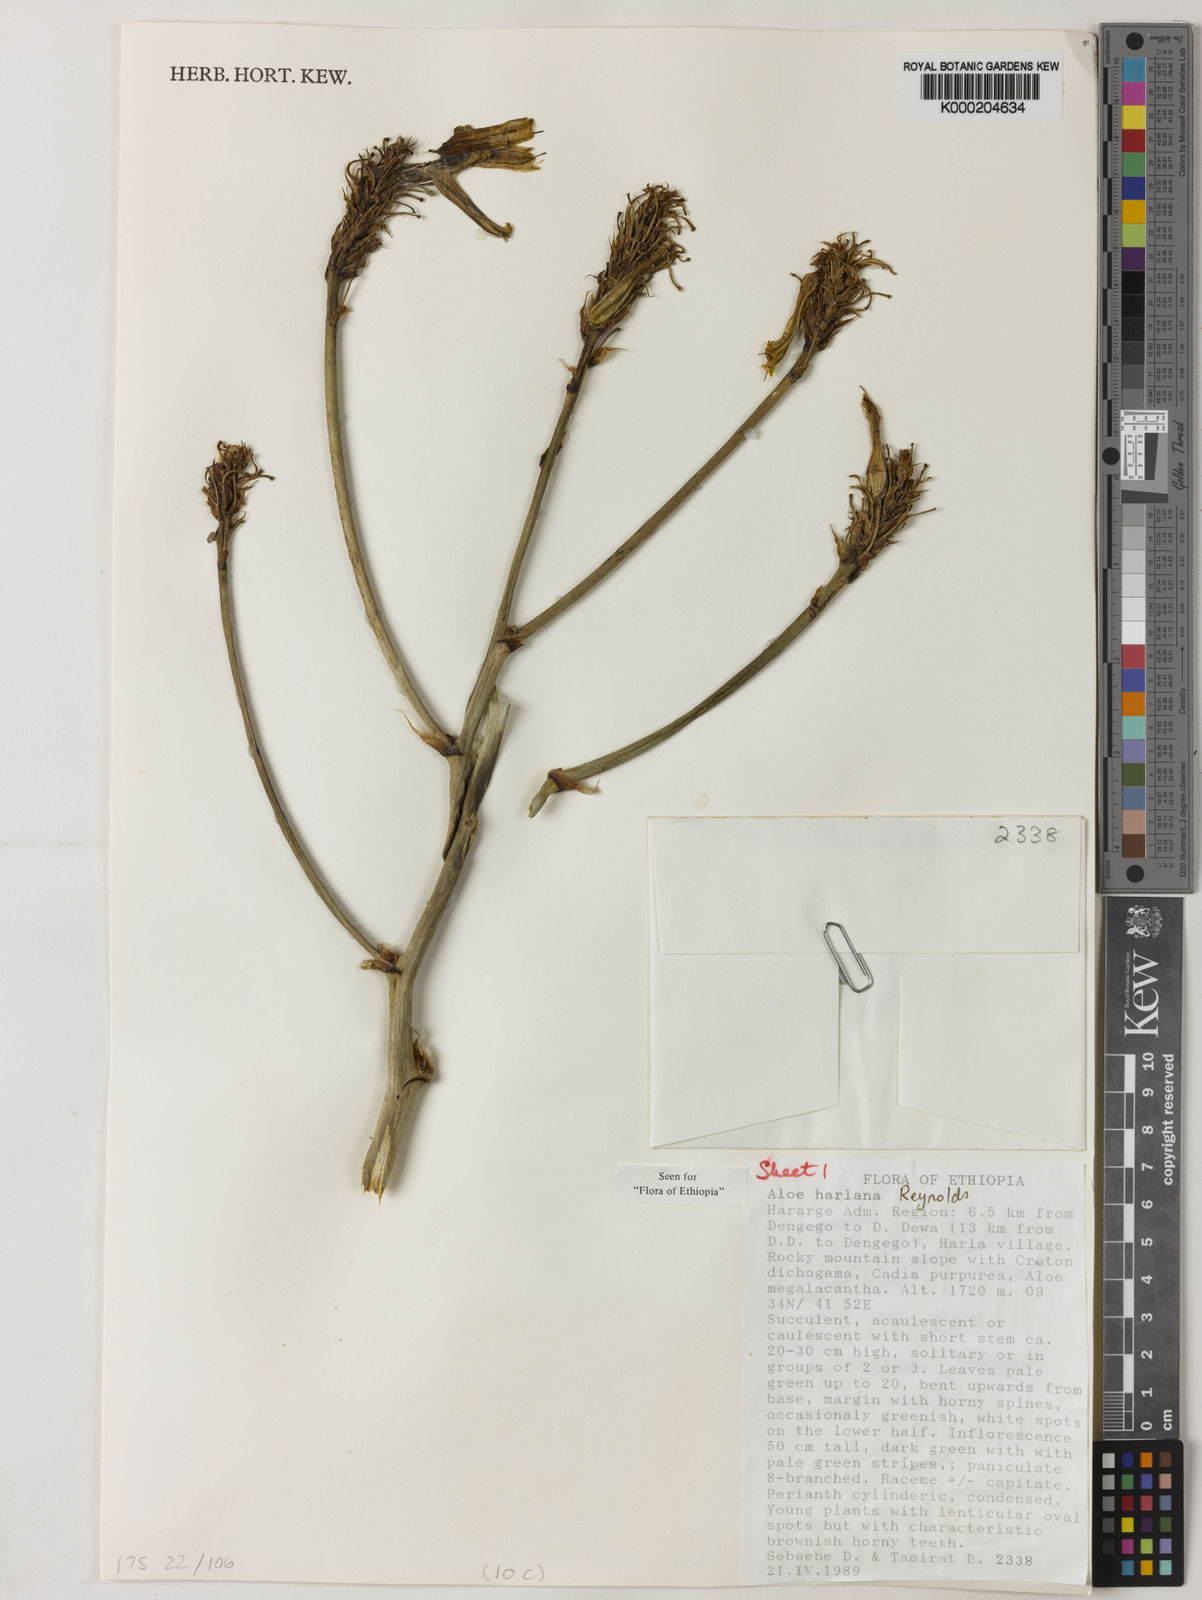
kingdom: Plantae
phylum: Tracheophyta
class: Liliopsida
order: Asparagales
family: Asphodelaceae
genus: Aloe
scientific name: Aloe harlana
